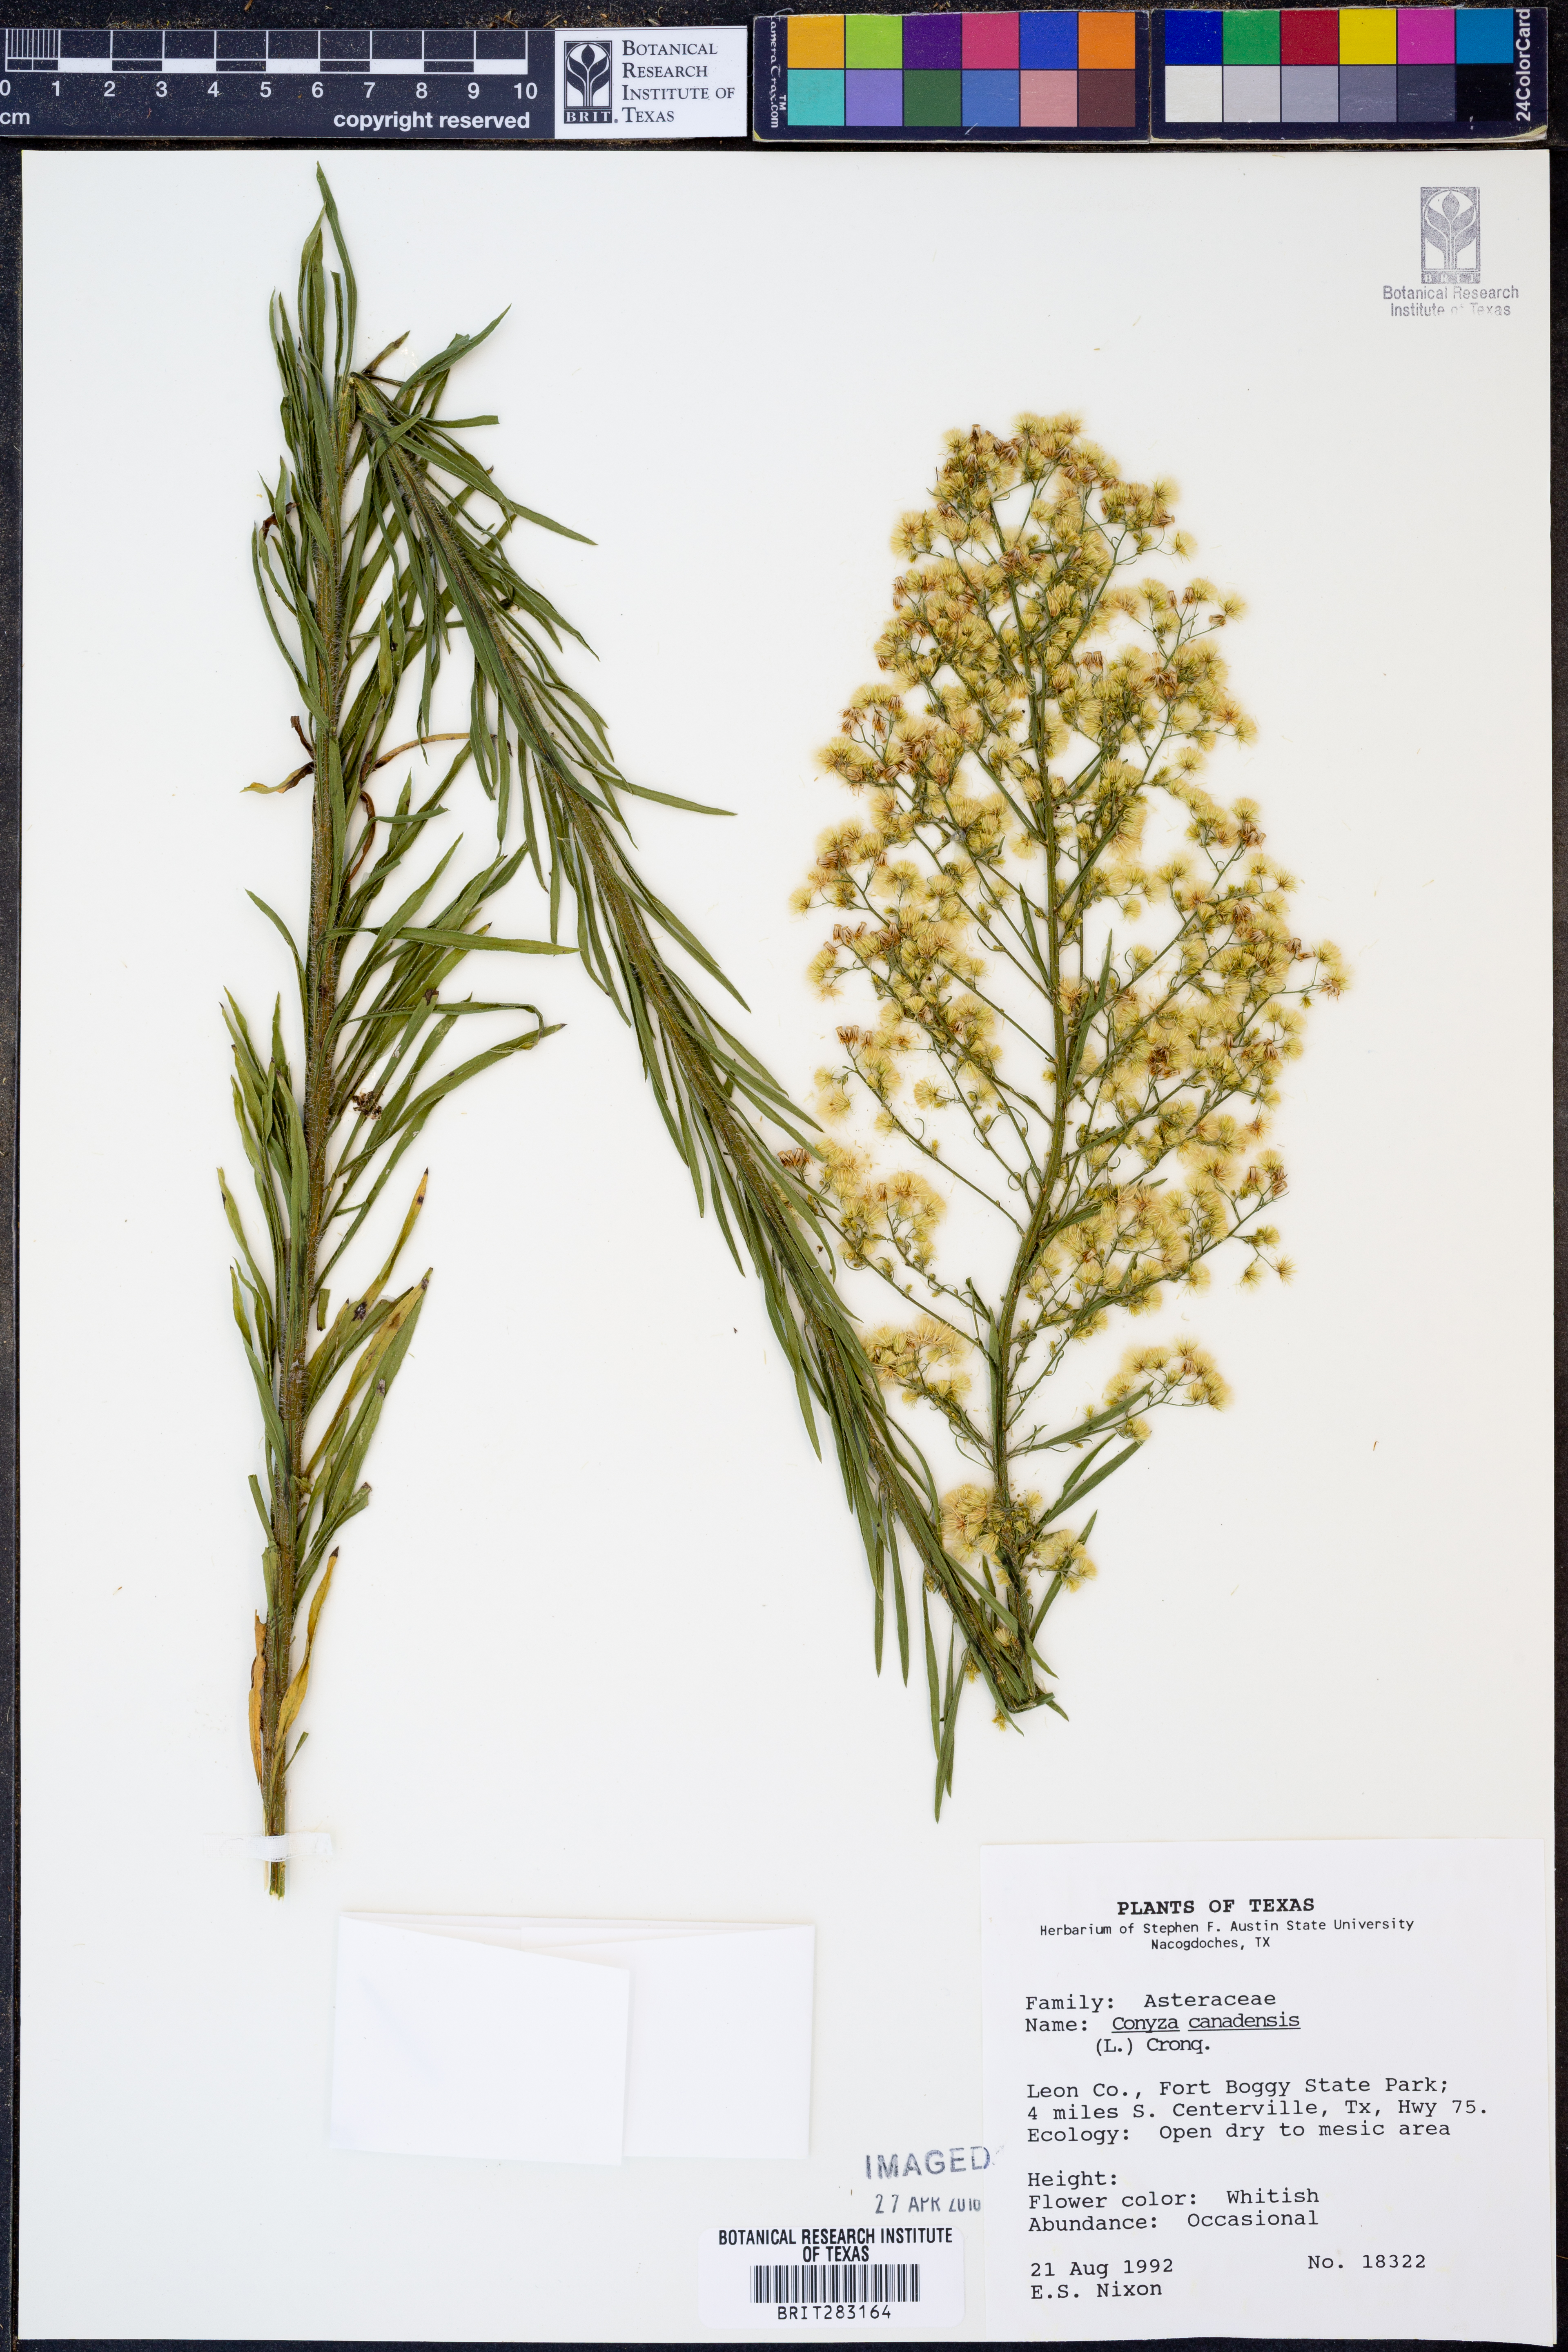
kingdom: Plantae
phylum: Tracheophyta
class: Magnoliopsida
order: Asterales
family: Asteraceae
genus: Erigeron
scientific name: Erigeron canadensis
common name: Canadian fleabane
